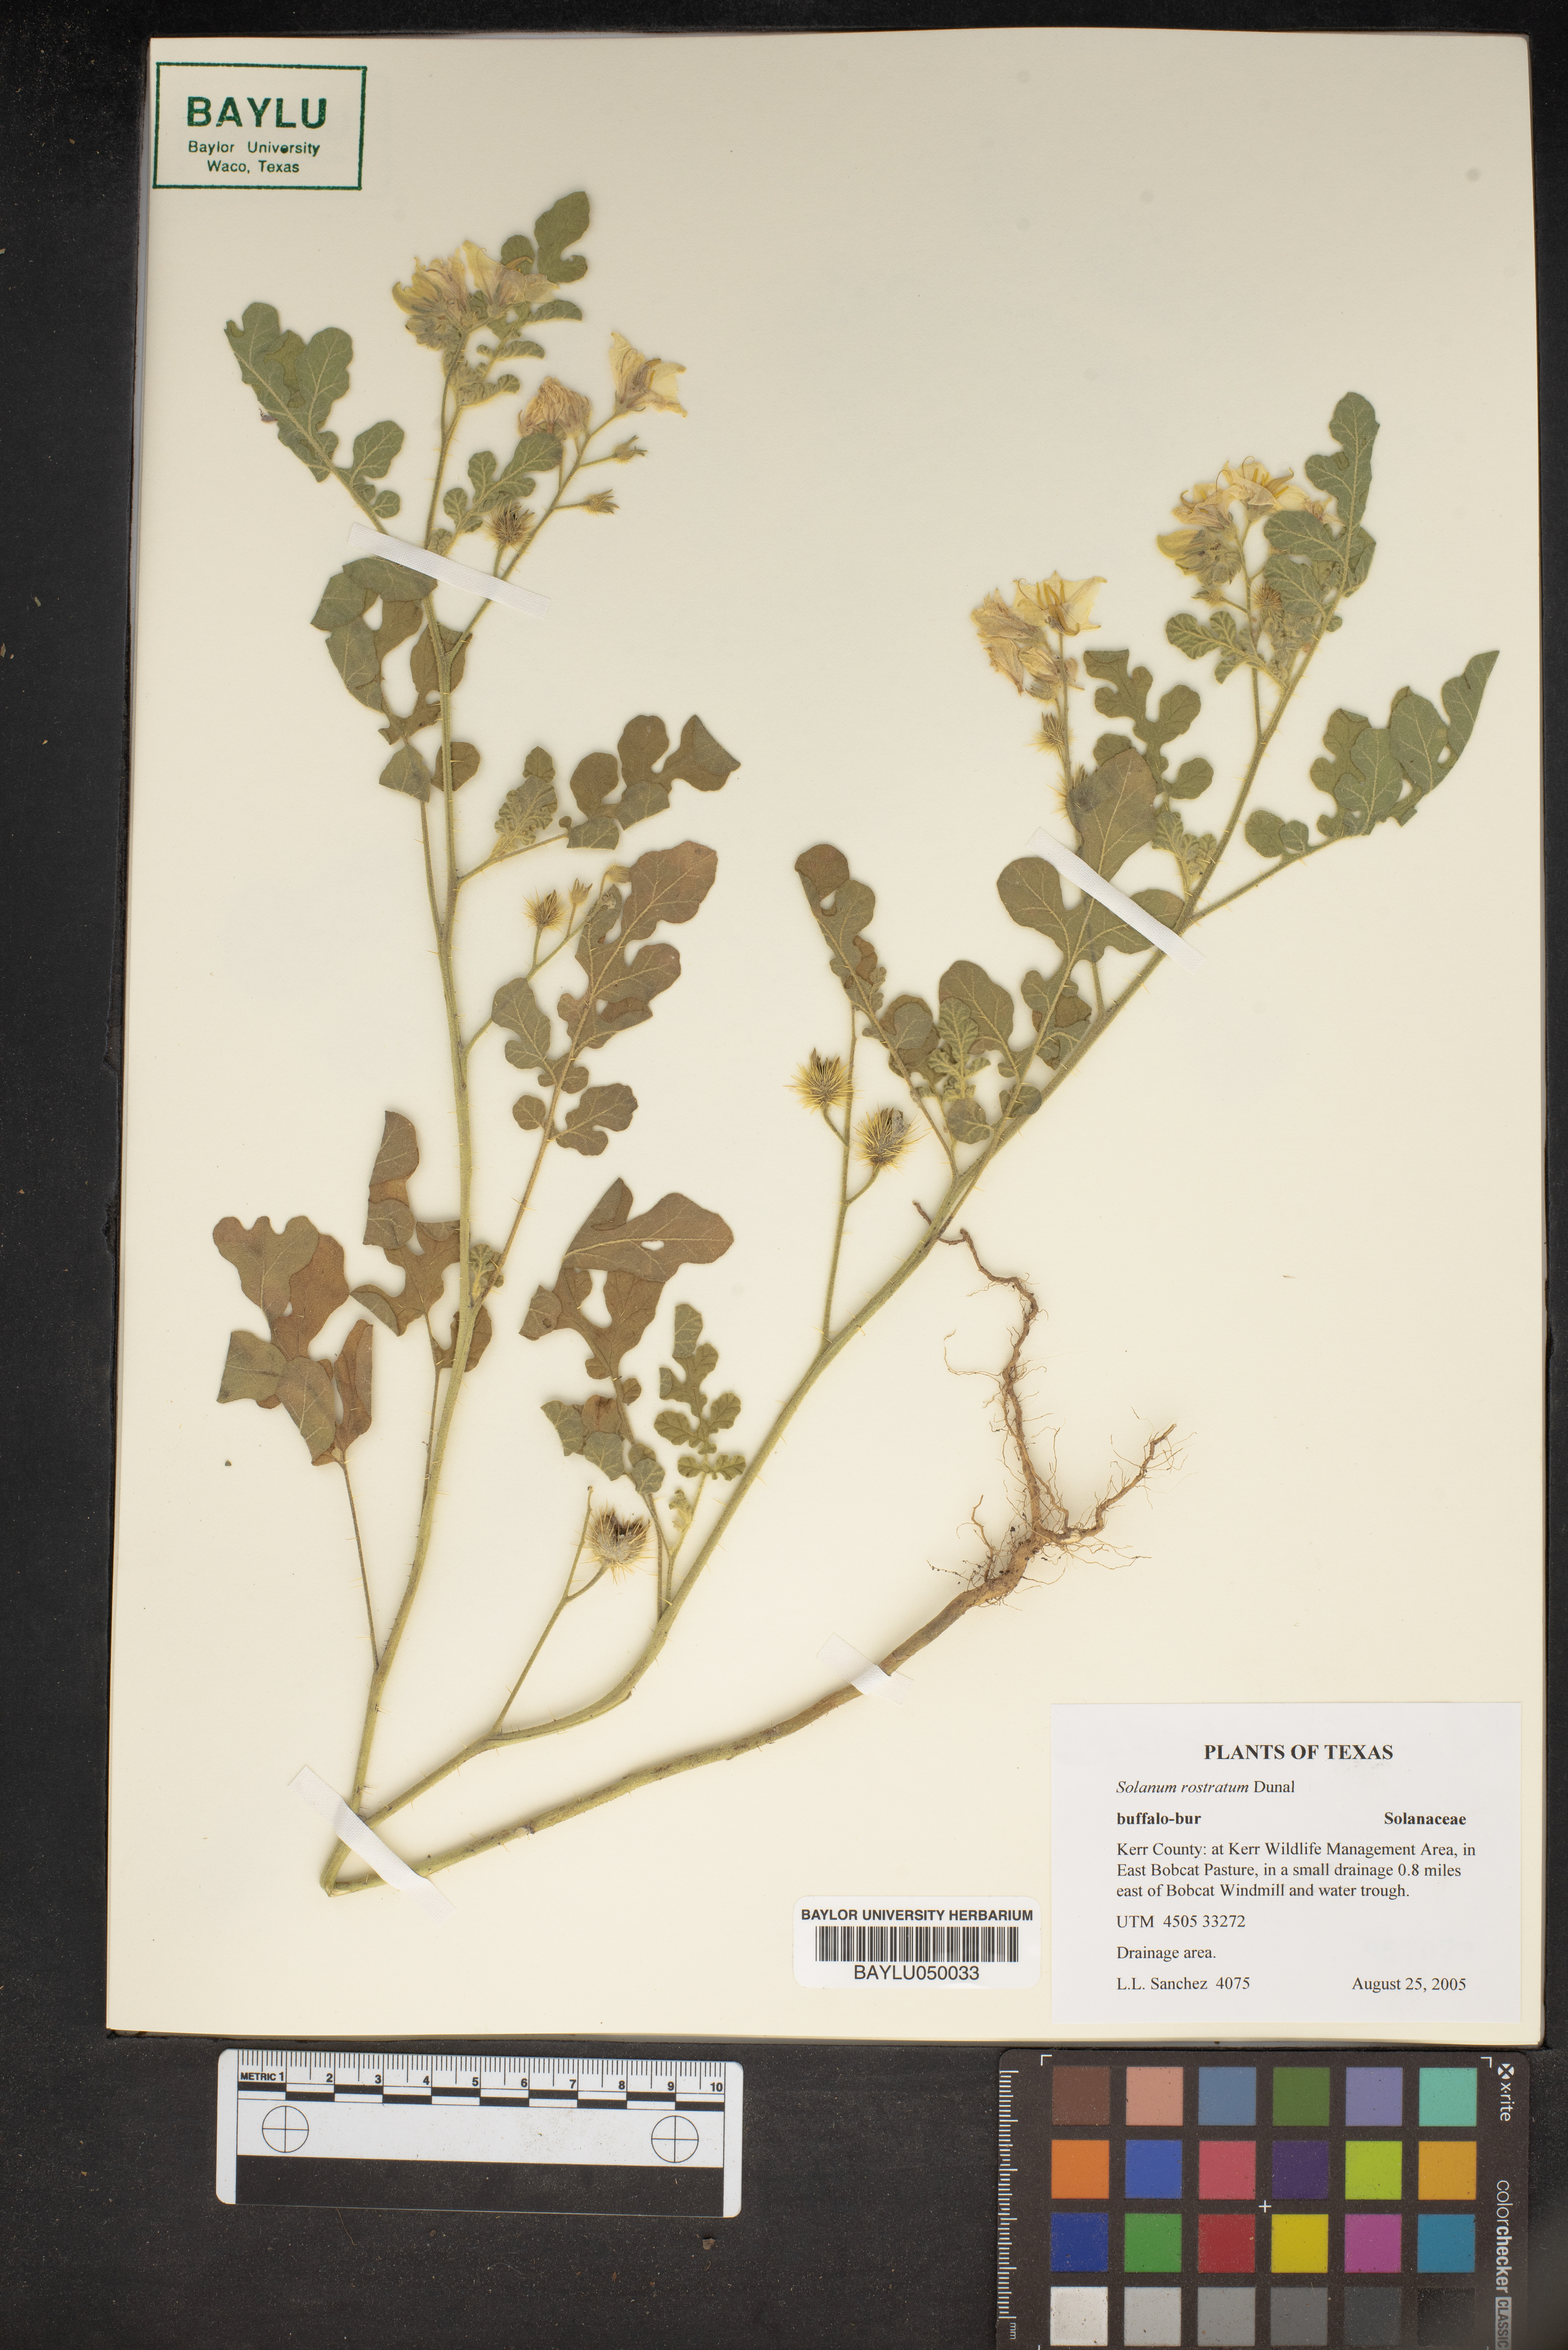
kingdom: Plantae
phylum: Tracheophyta
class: Magnoliopsida
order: Solanales
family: Solanaceae
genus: Solanum
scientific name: Solanum angustifolium
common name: Buffalobur nightshade
